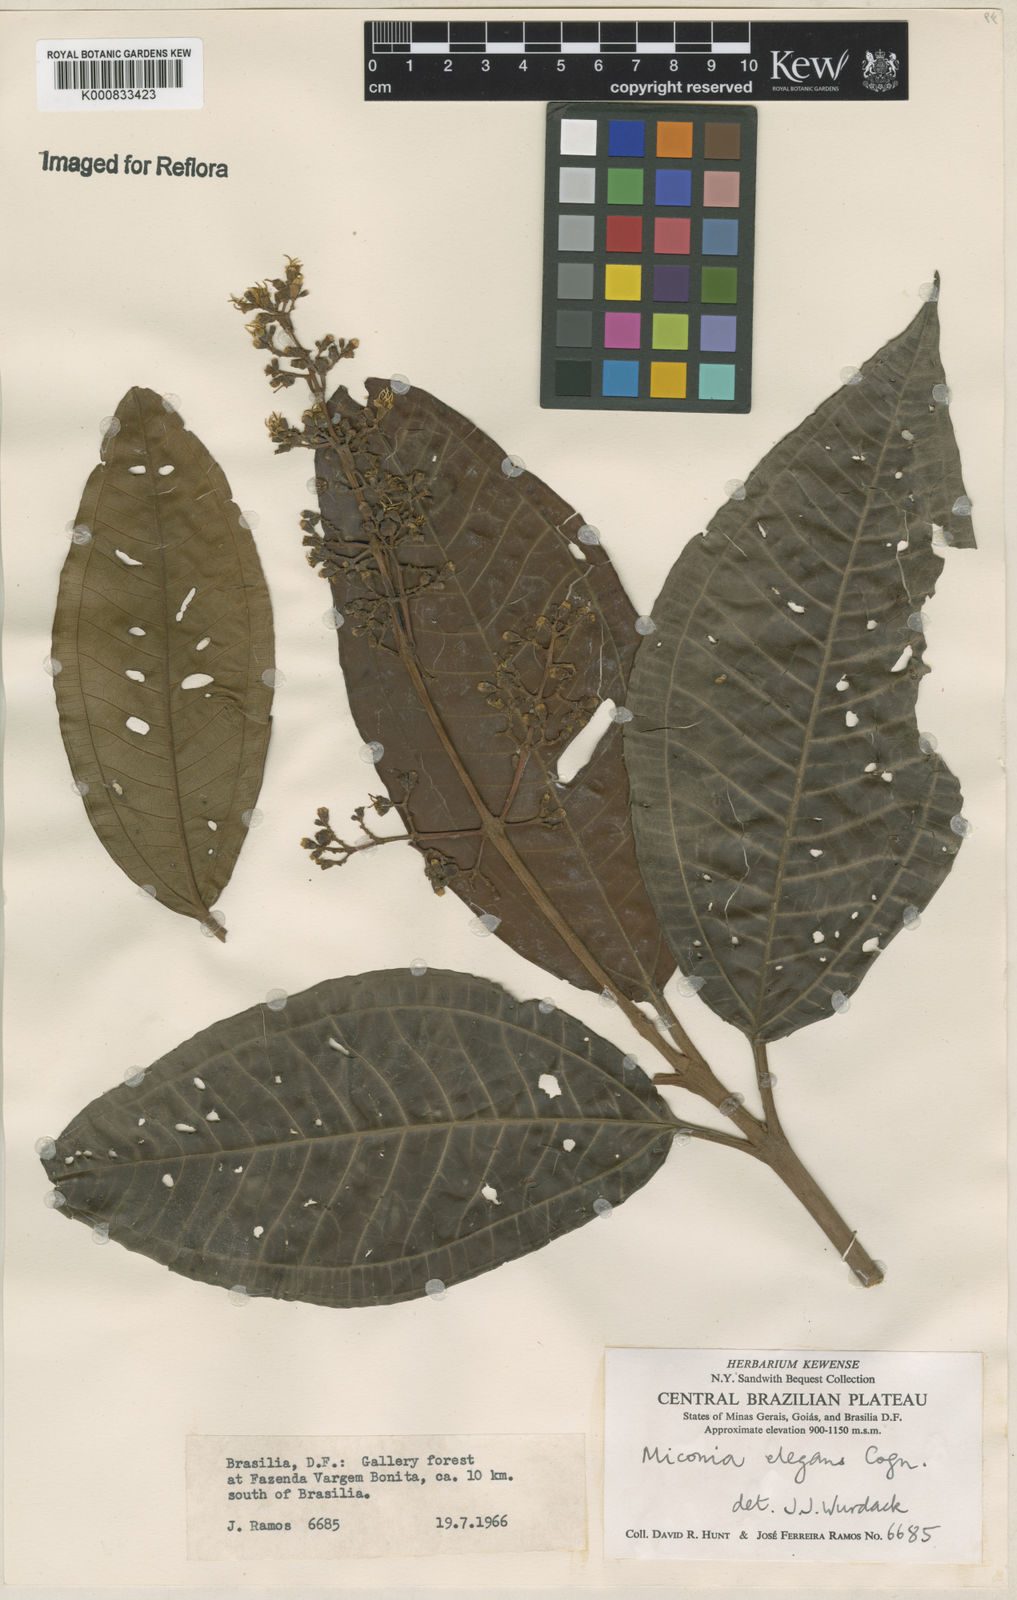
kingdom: Plantae
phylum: Tracheophyta
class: Magnoliopsida
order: Myrtales
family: Melastomataceae
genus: Miconia
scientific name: Miconia elegans
